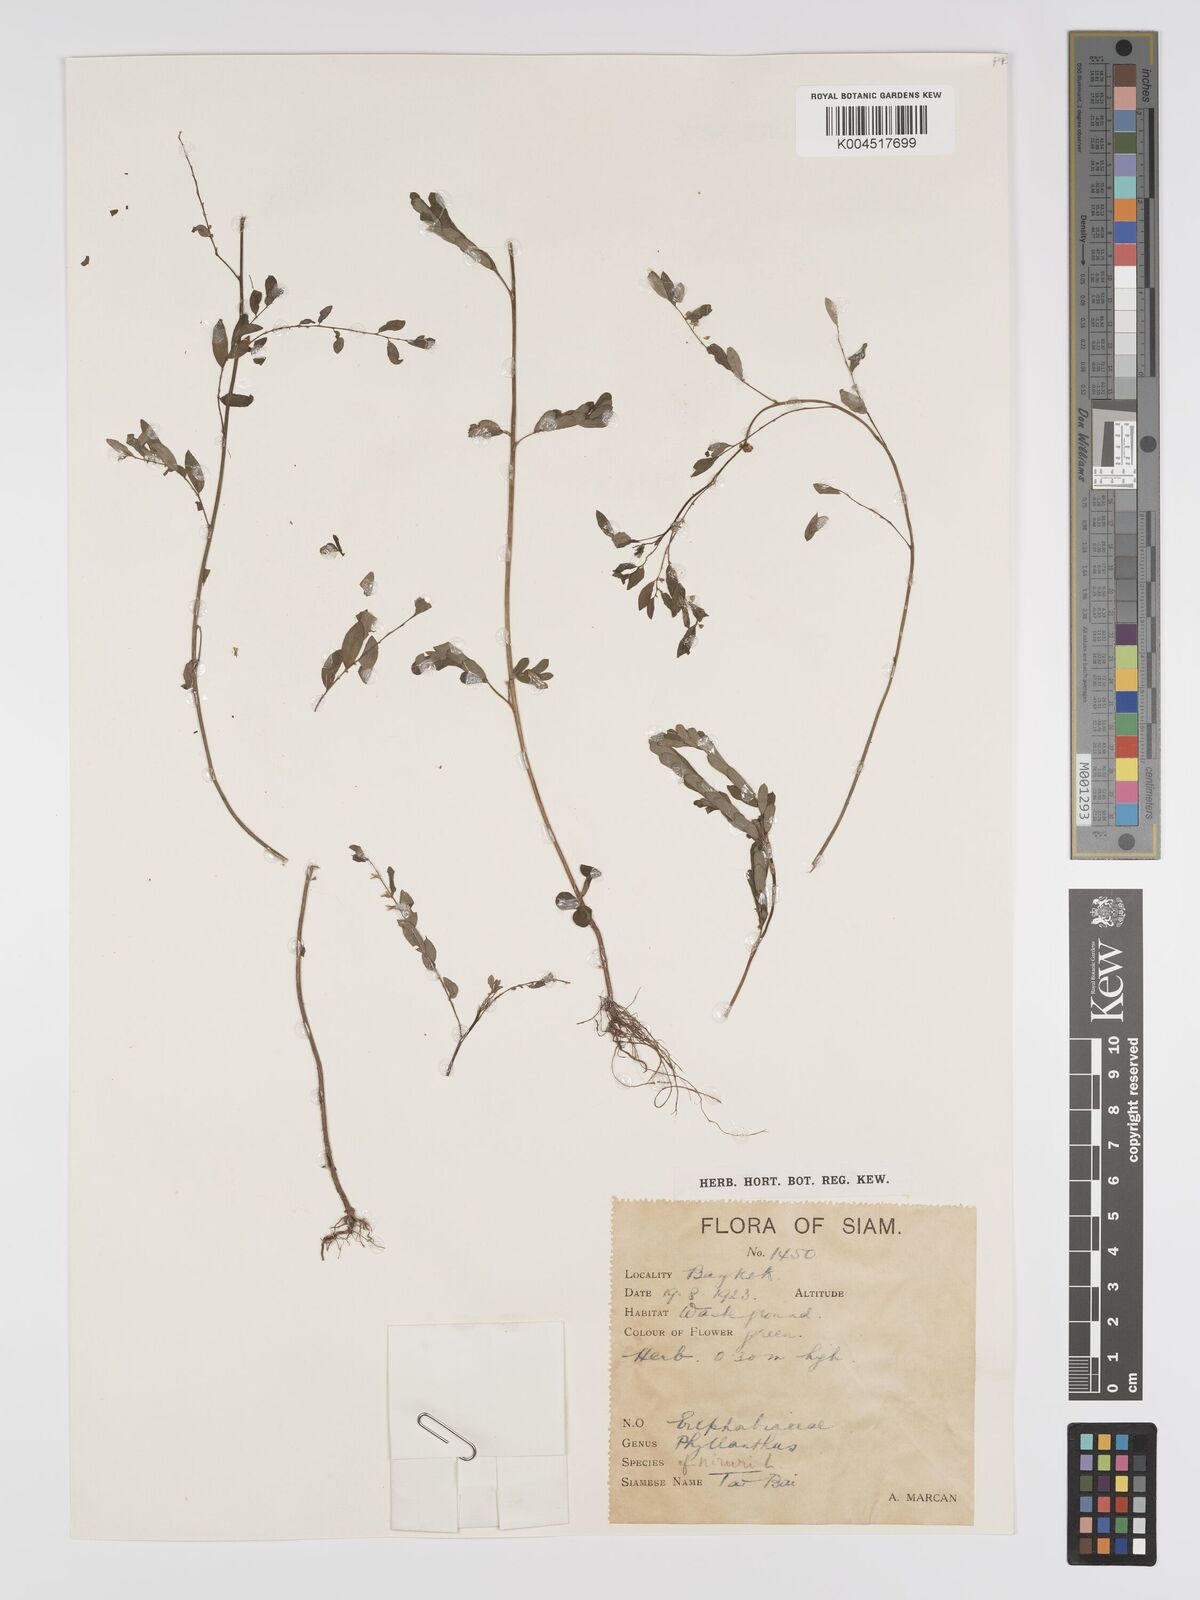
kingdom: Plantae
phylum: Tracheophyta
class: Magnoliopsida
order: Malpighiales
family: Phyllanthaceae
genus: Phyllanthus
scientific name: Phyllanthus
